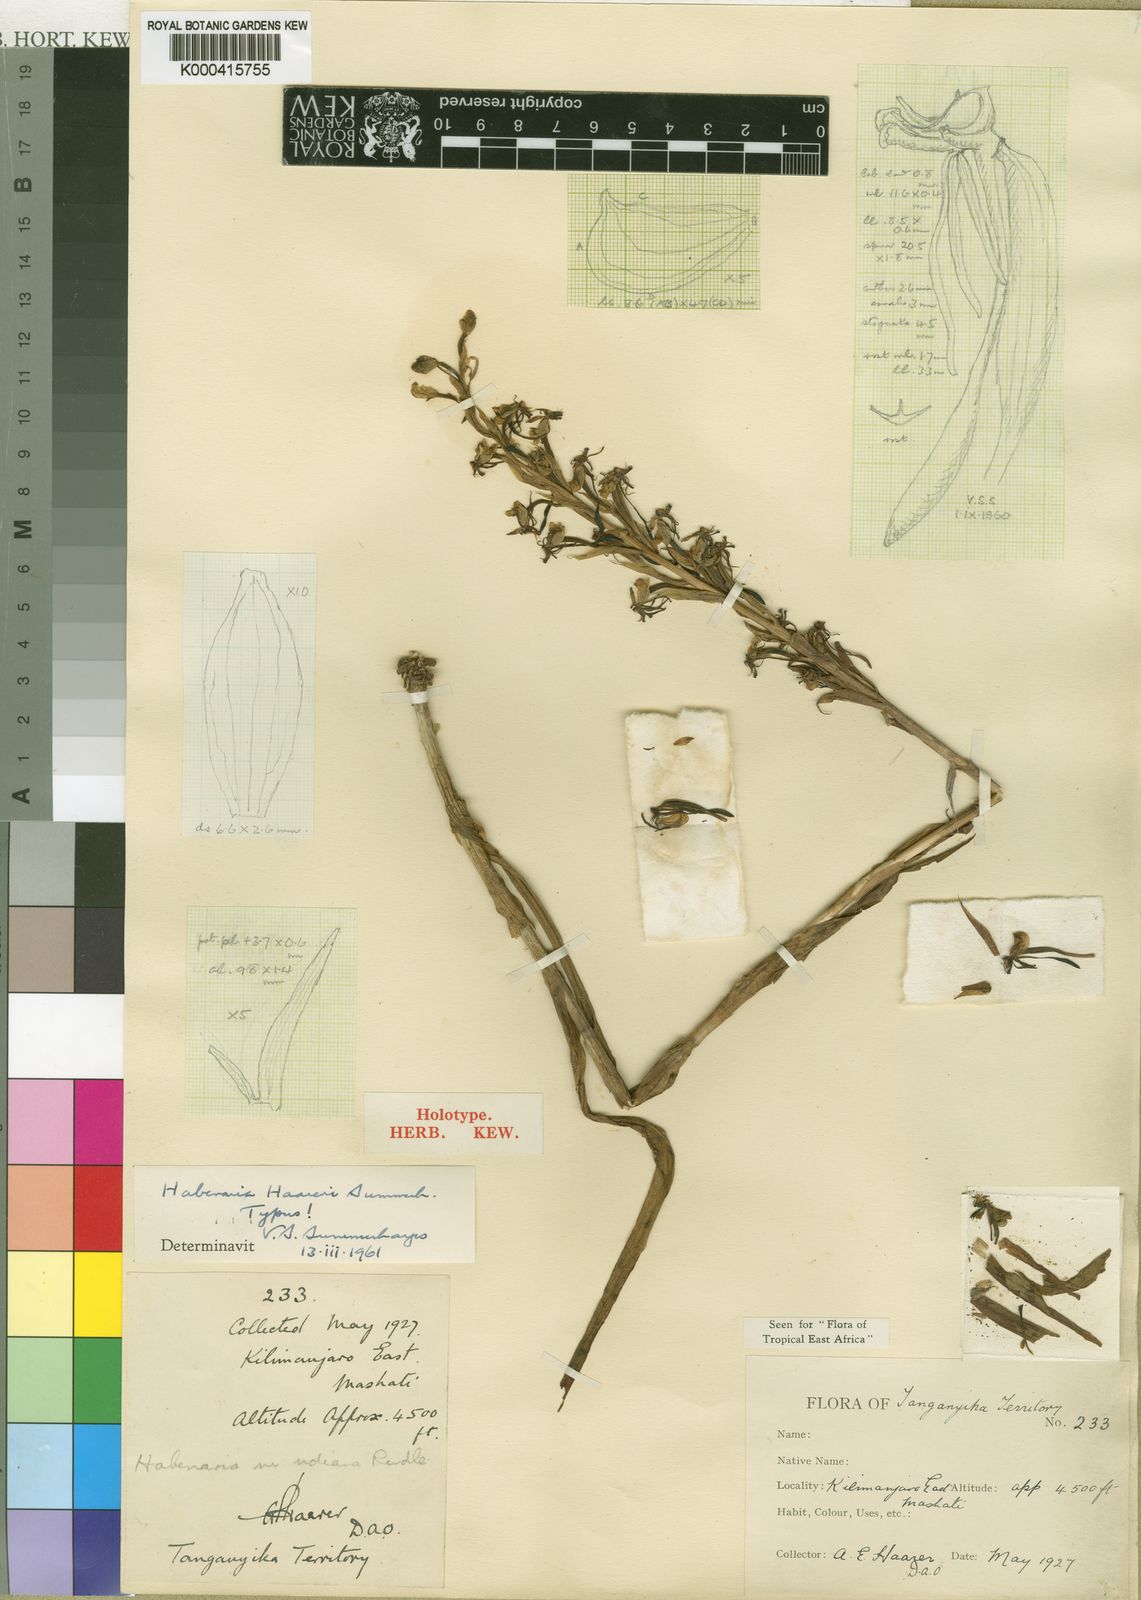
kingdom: Plantae
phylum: Tracheophyta
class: Liliopsida
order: Asparagales
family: Orchidaceae
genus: Habenaria
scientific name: Habenaria haareri
